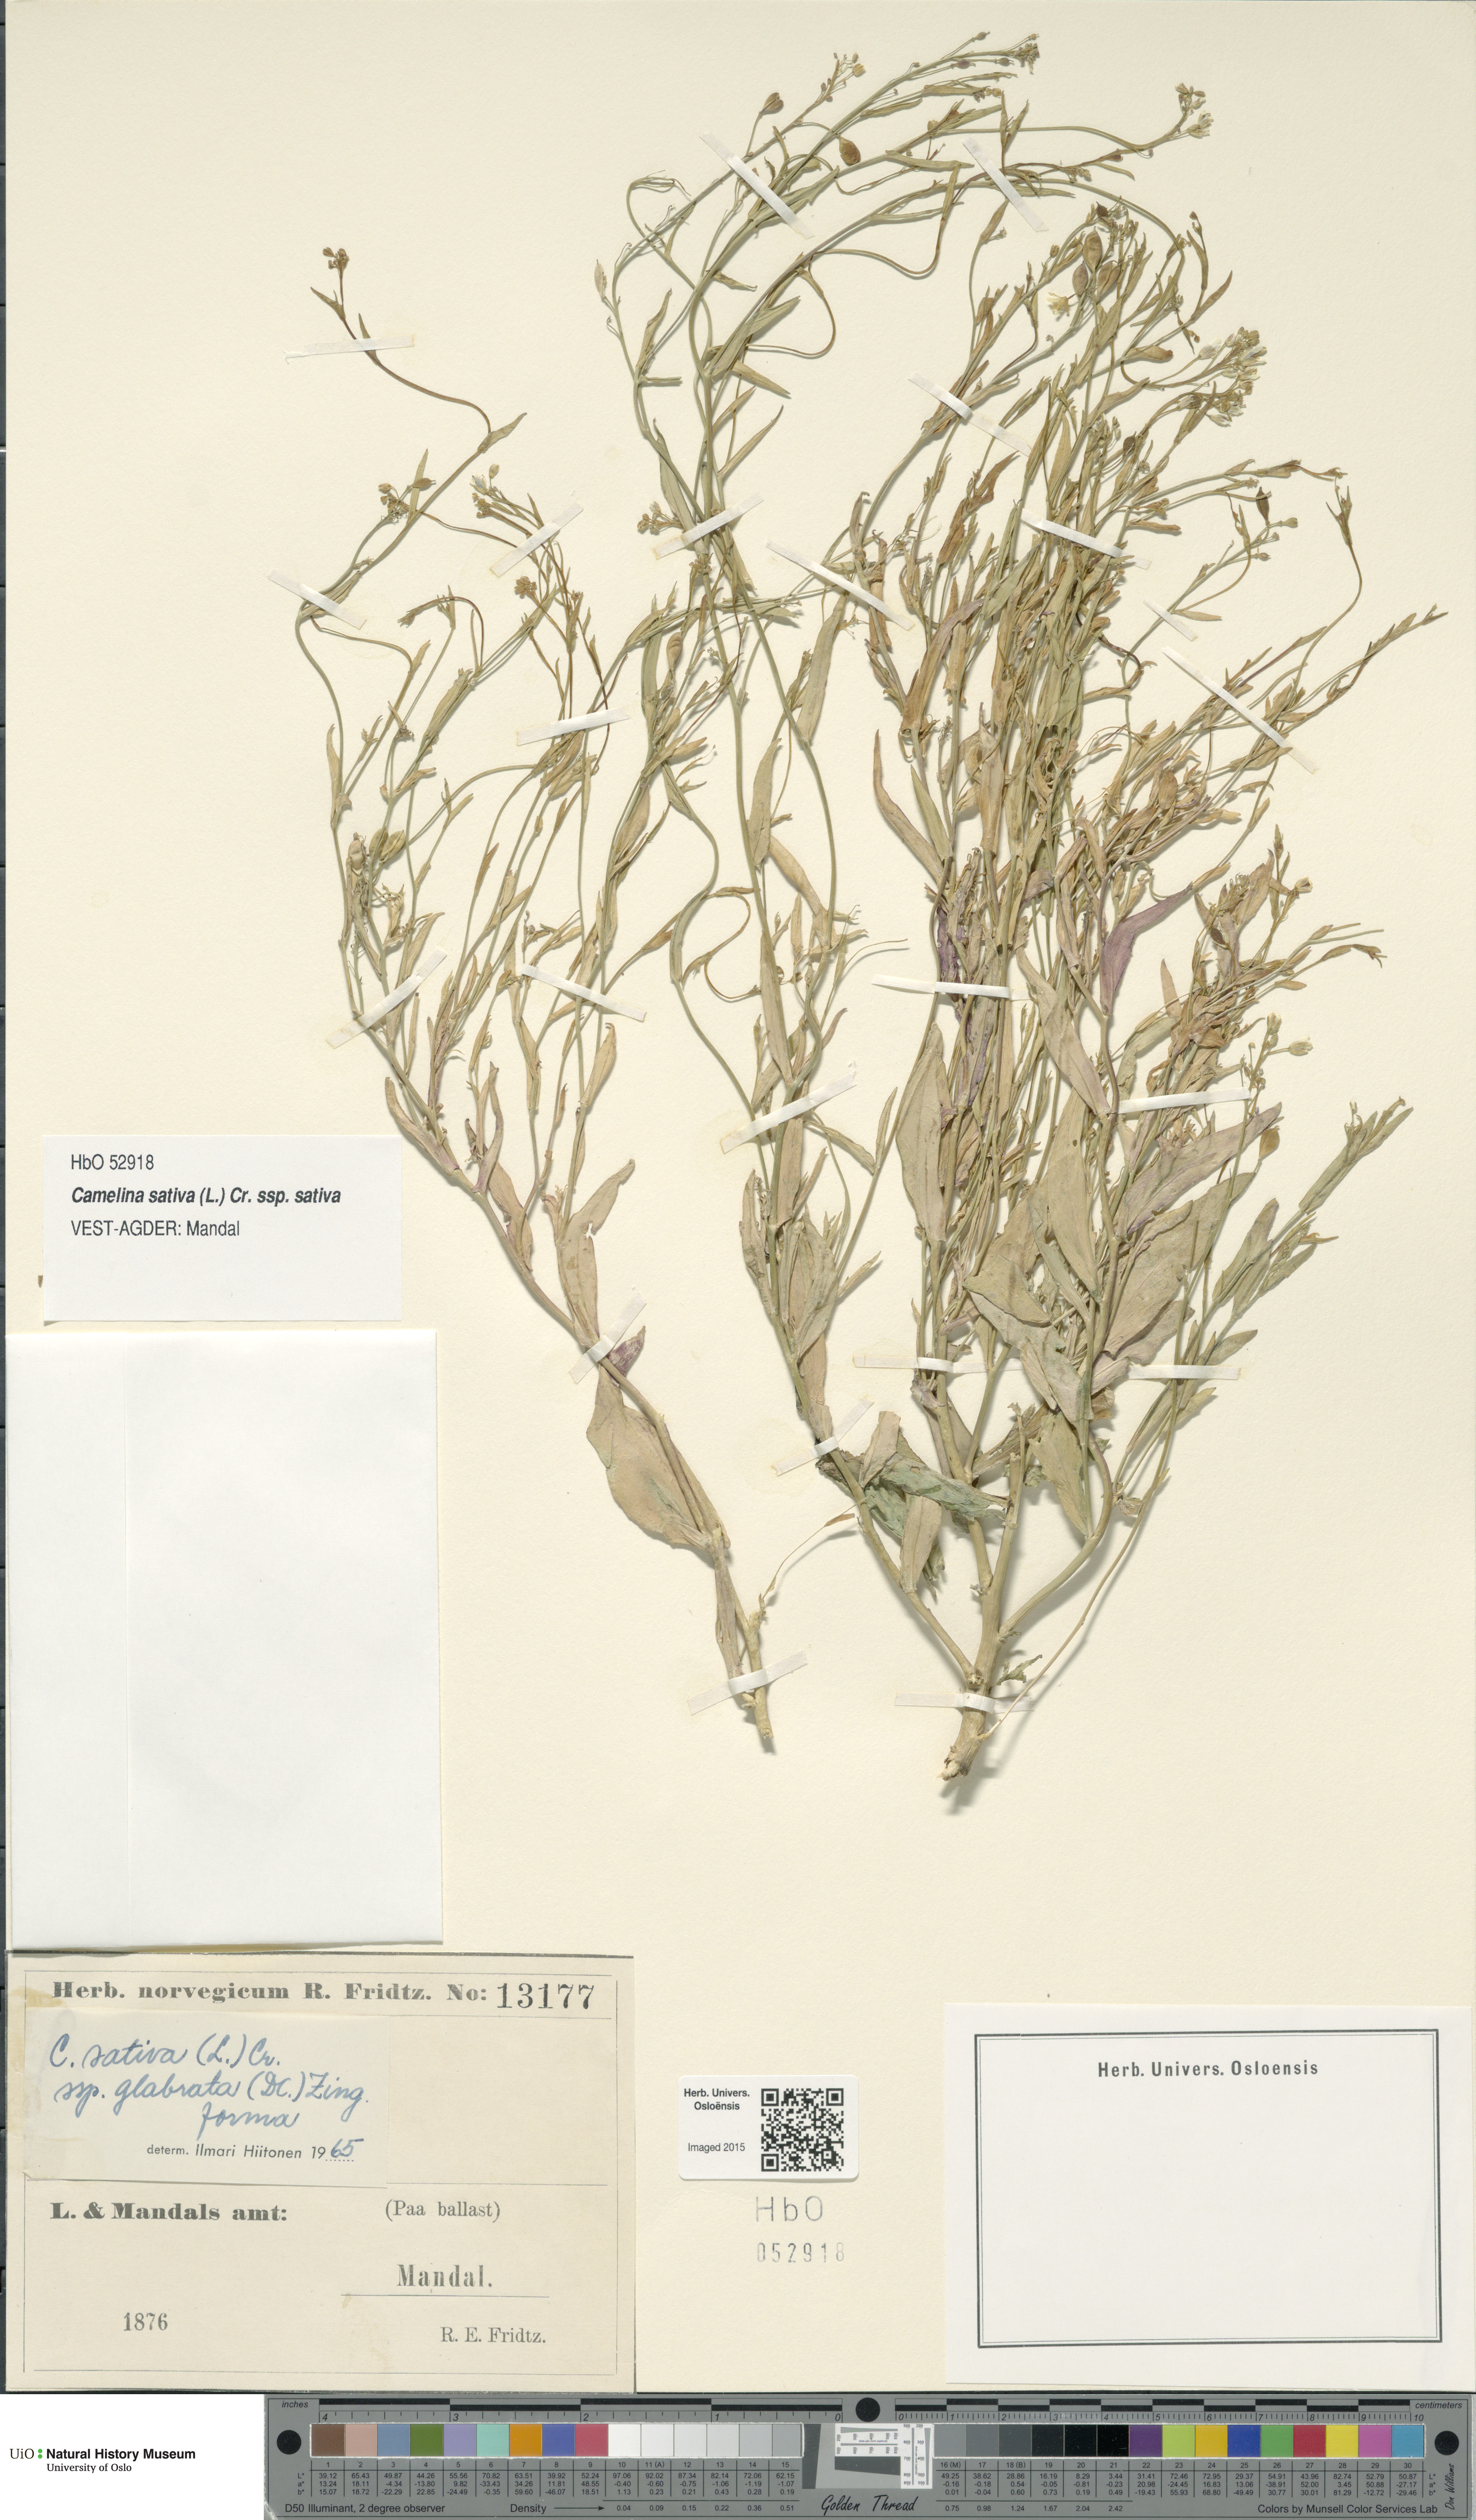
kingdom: Plantae
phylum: Tracheophyta
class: Magnoliopsida
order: Brassicales
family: Brassicaceae
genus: Camelina
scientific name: Camelina sativa
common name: Gold-of-pleasure
